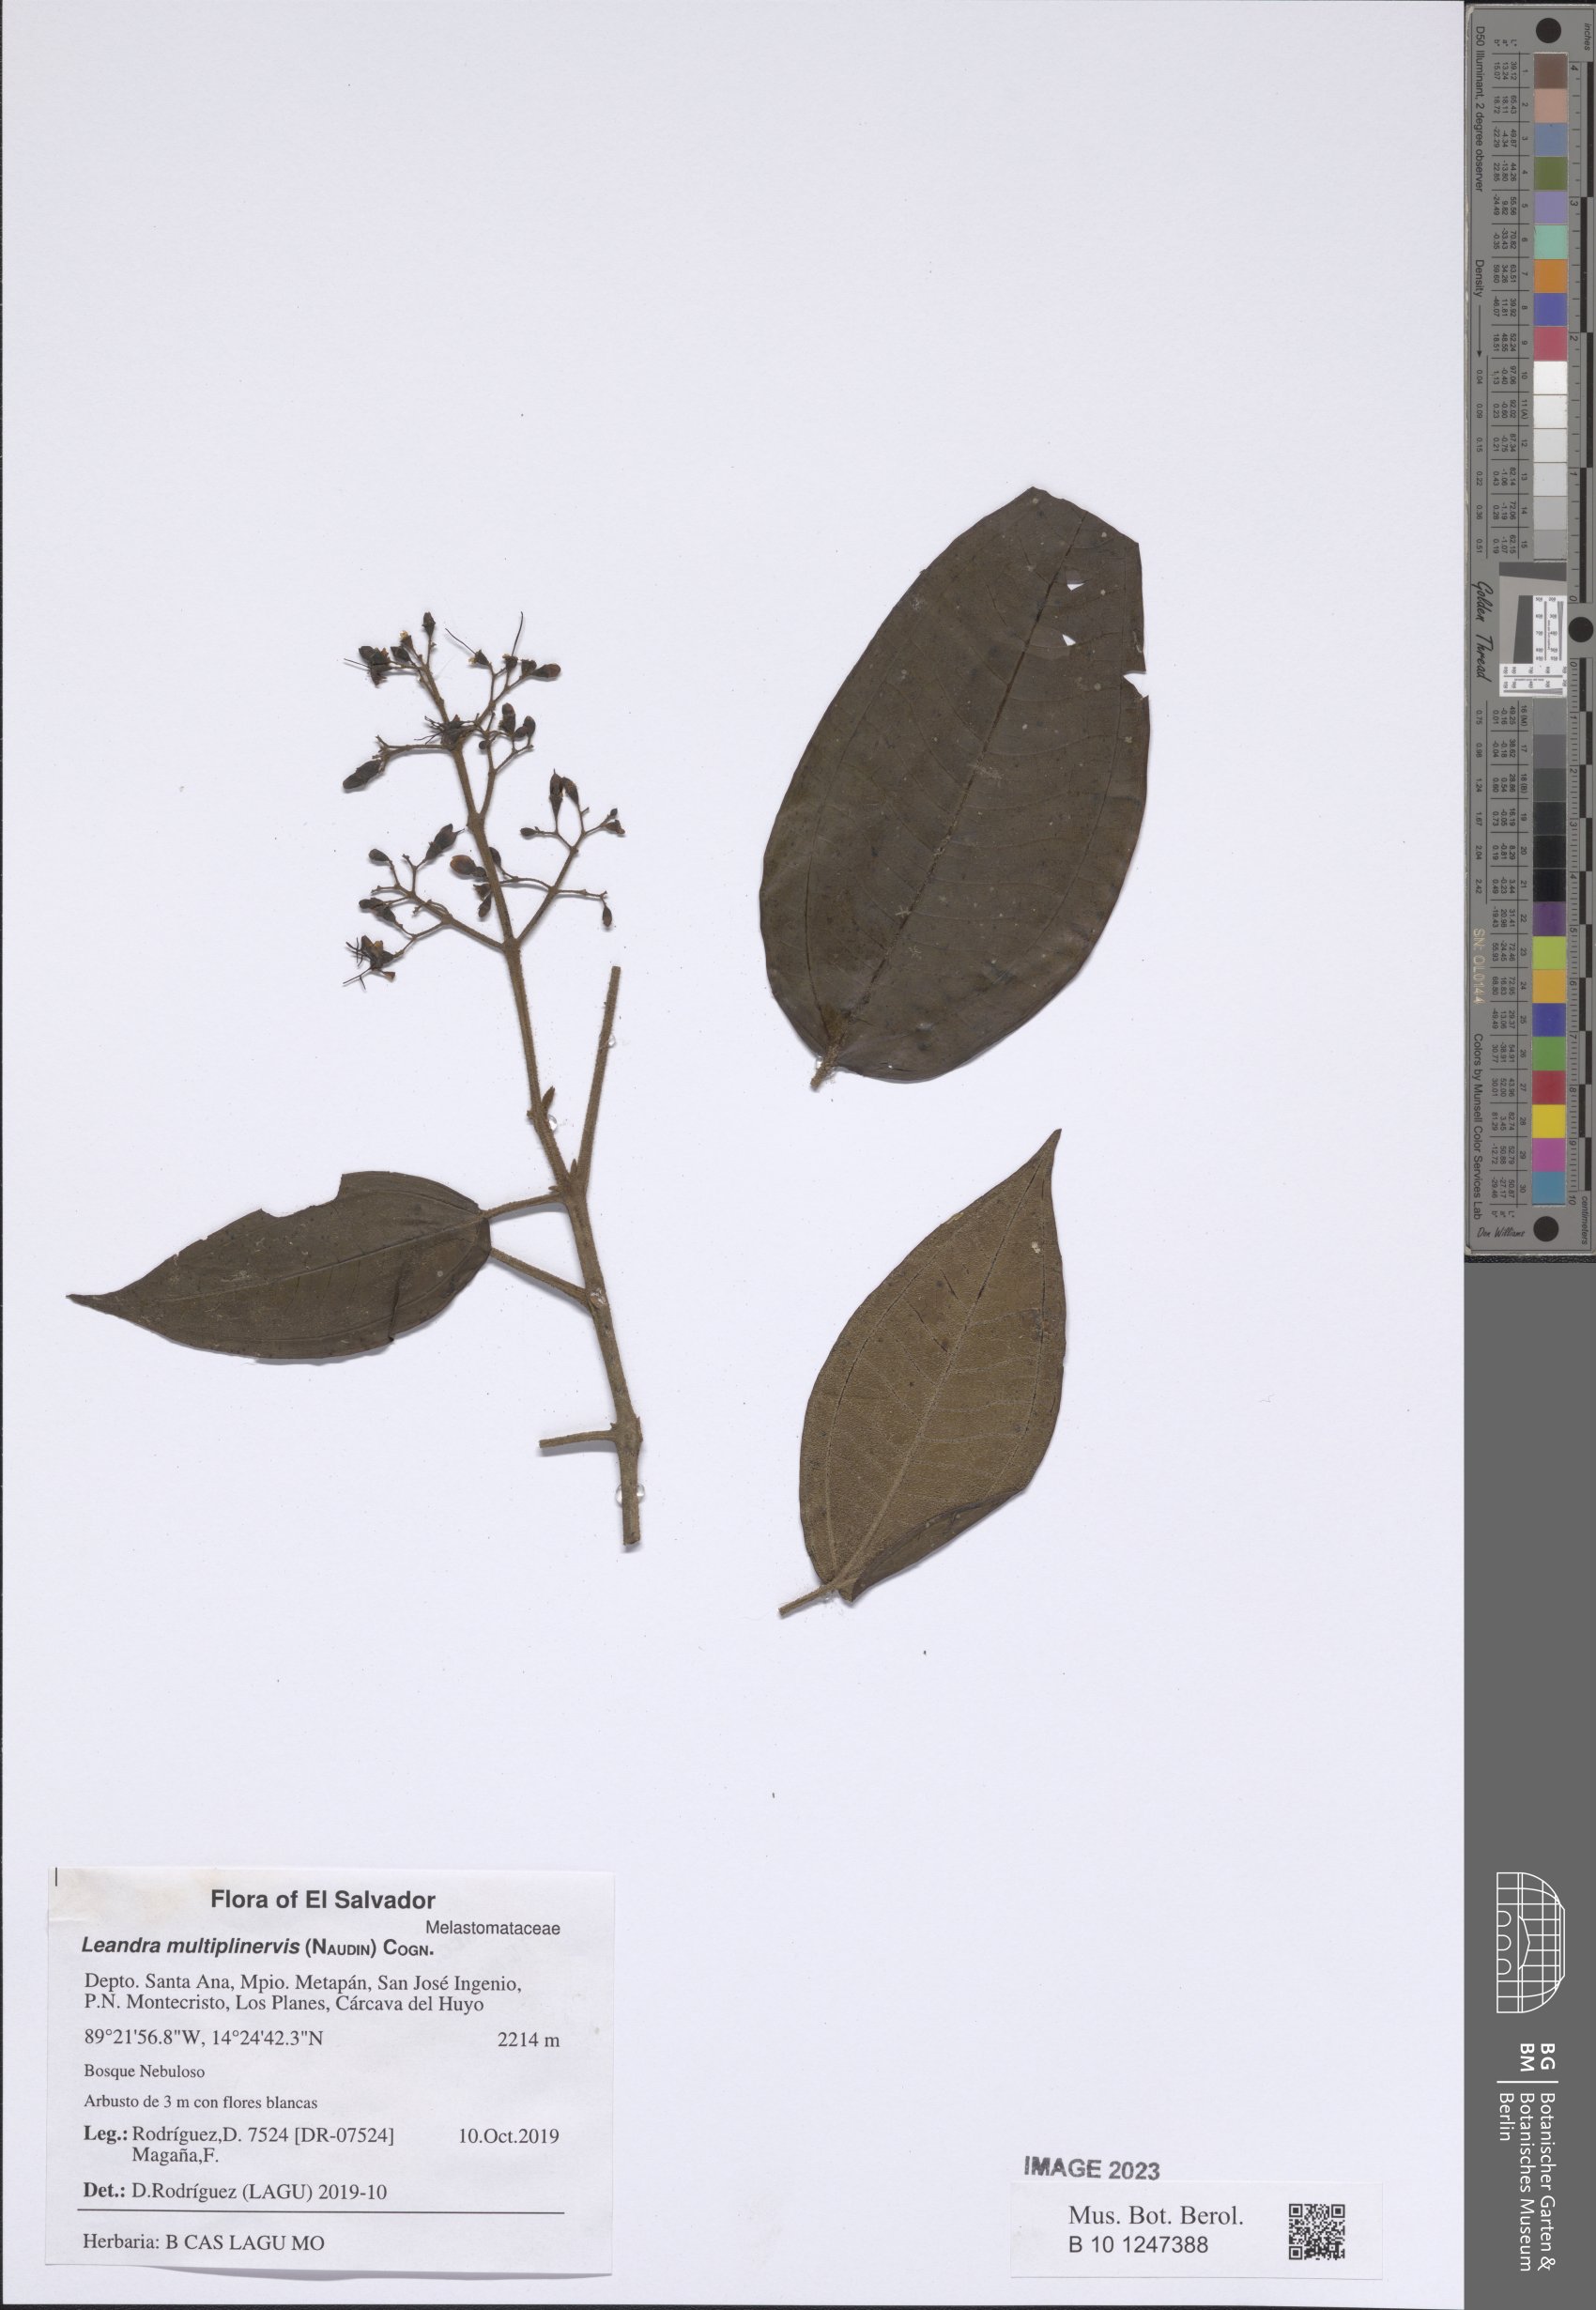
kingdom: Plantae
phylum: Tracheophyta
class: Magnoliopsida
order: Myrtales
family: Melastomataceae
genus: Miconia
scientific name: Miconia oocarpa
